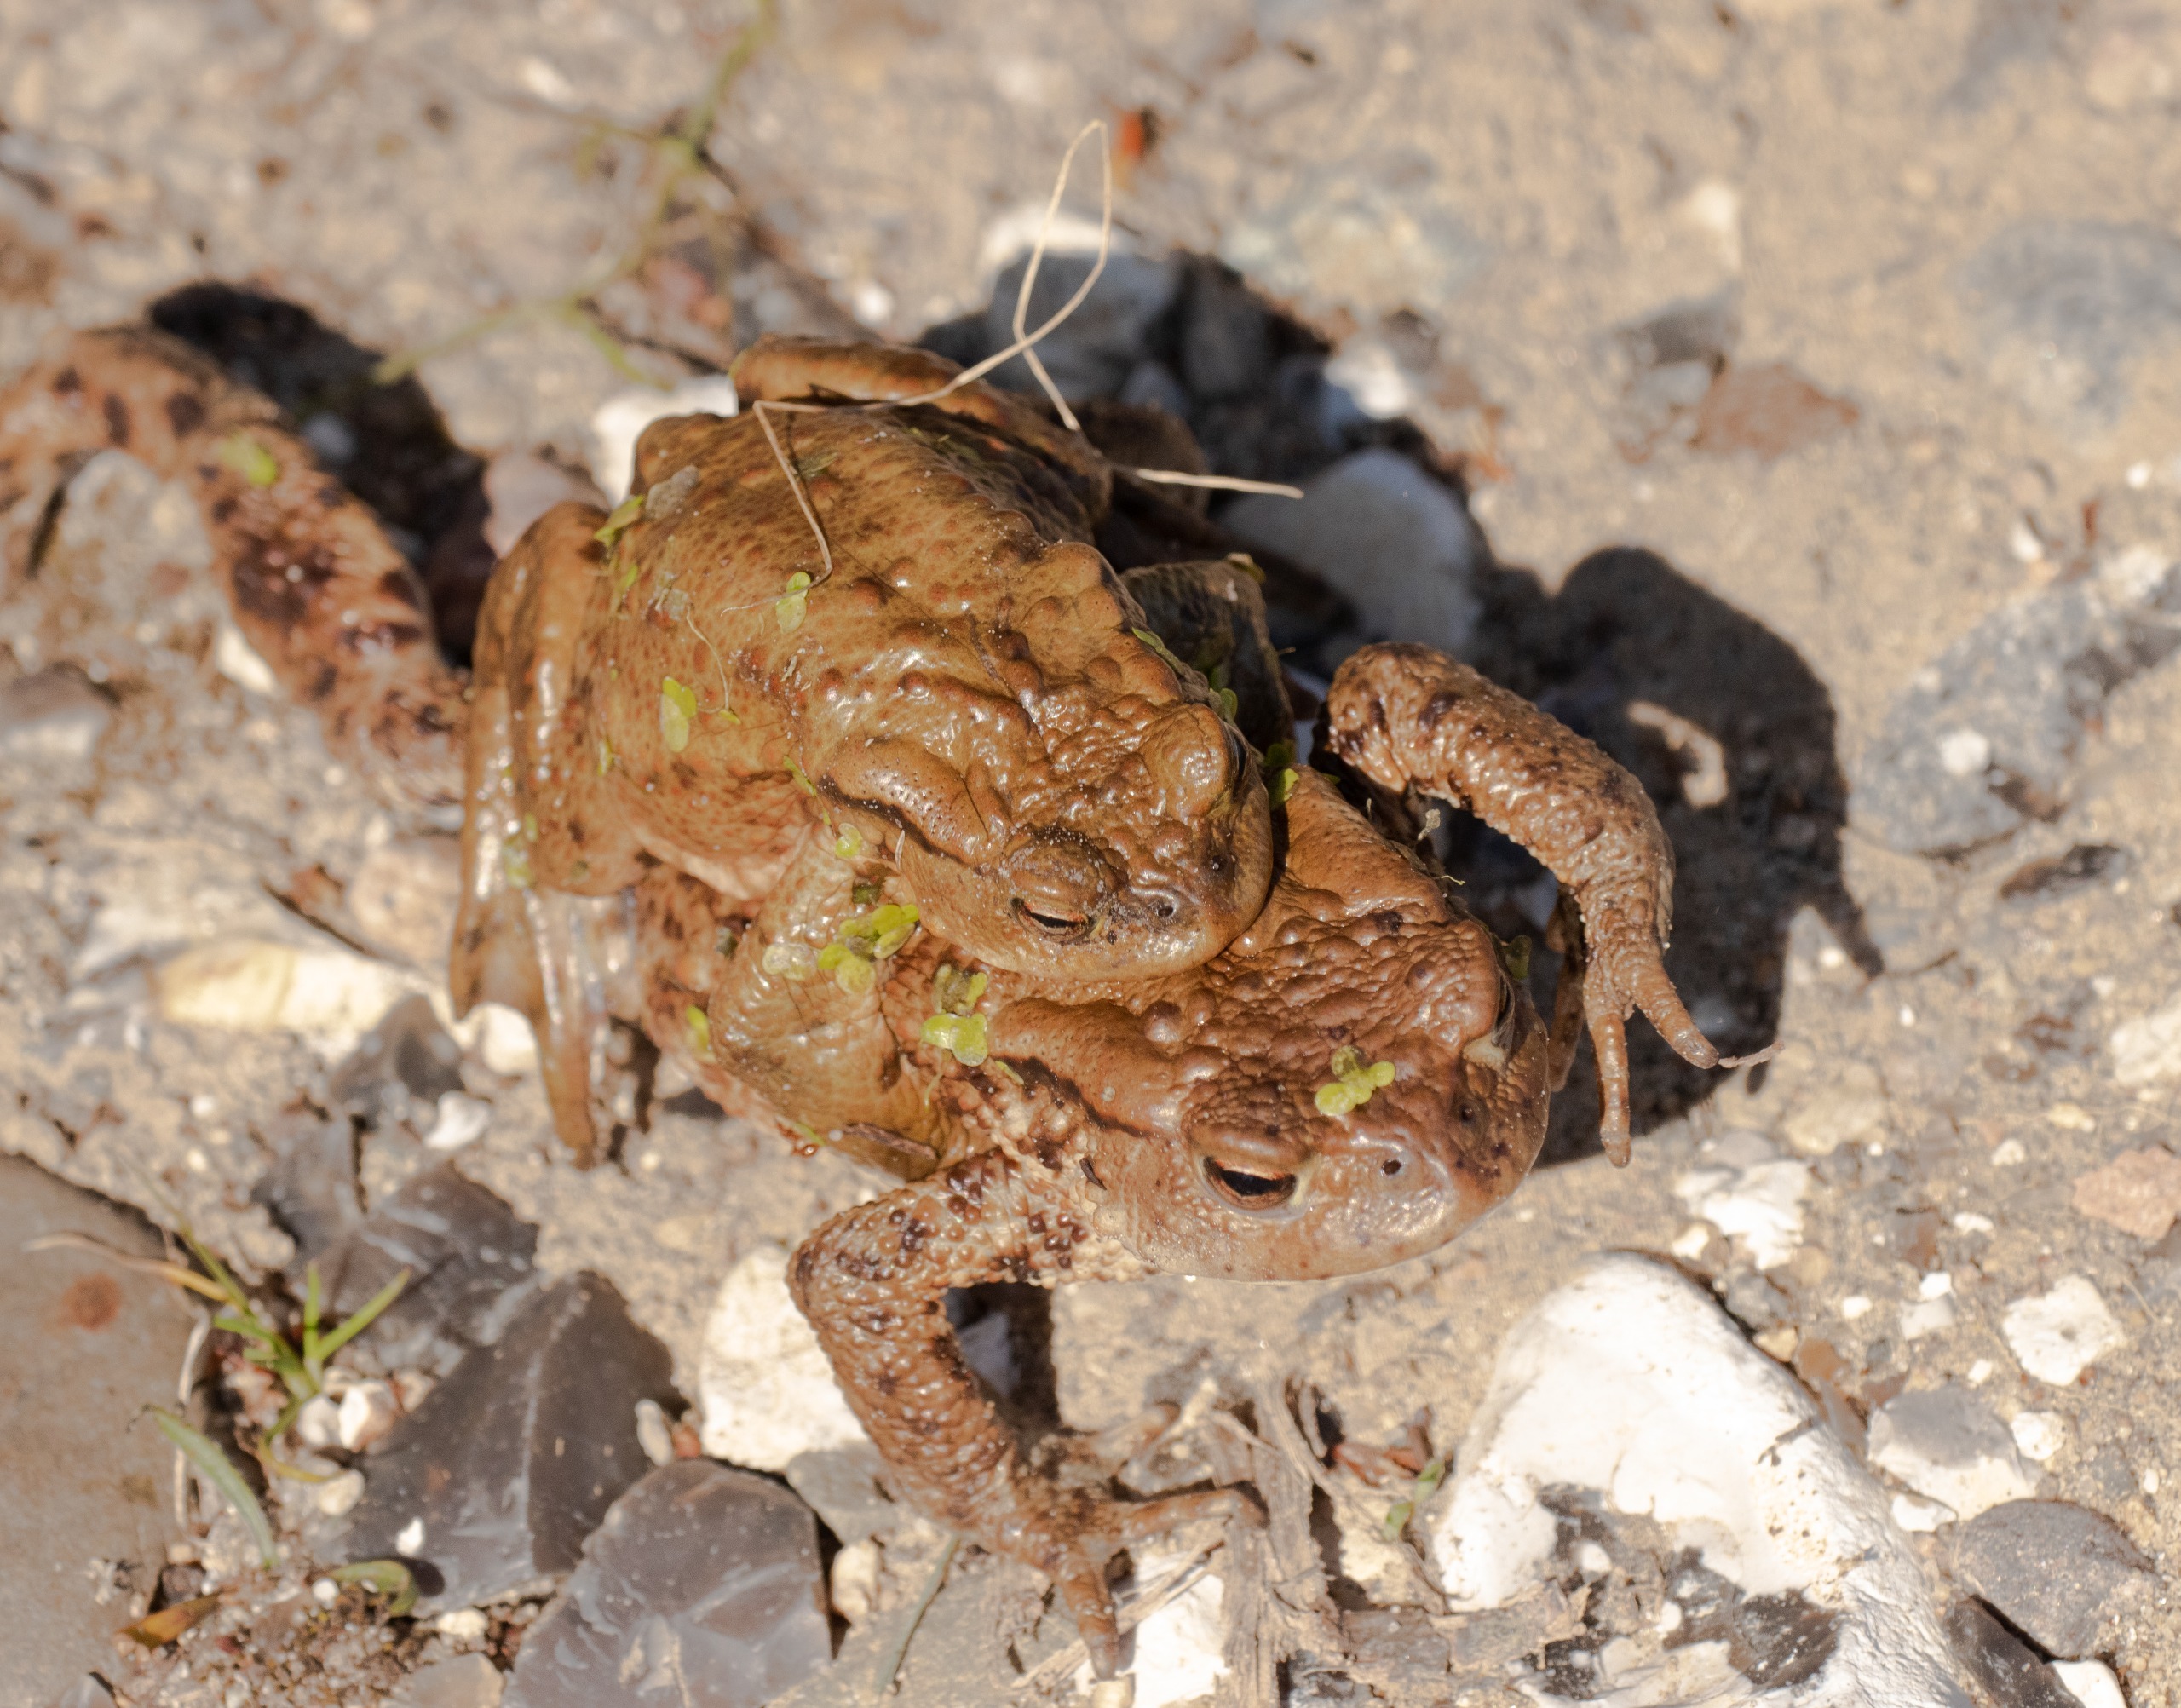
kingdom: Animalia
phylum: Chordata
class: Amphibia
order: Anura
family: Bufonidae
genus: Bufo
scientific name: Bufo bufo
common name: Skrubtudse
